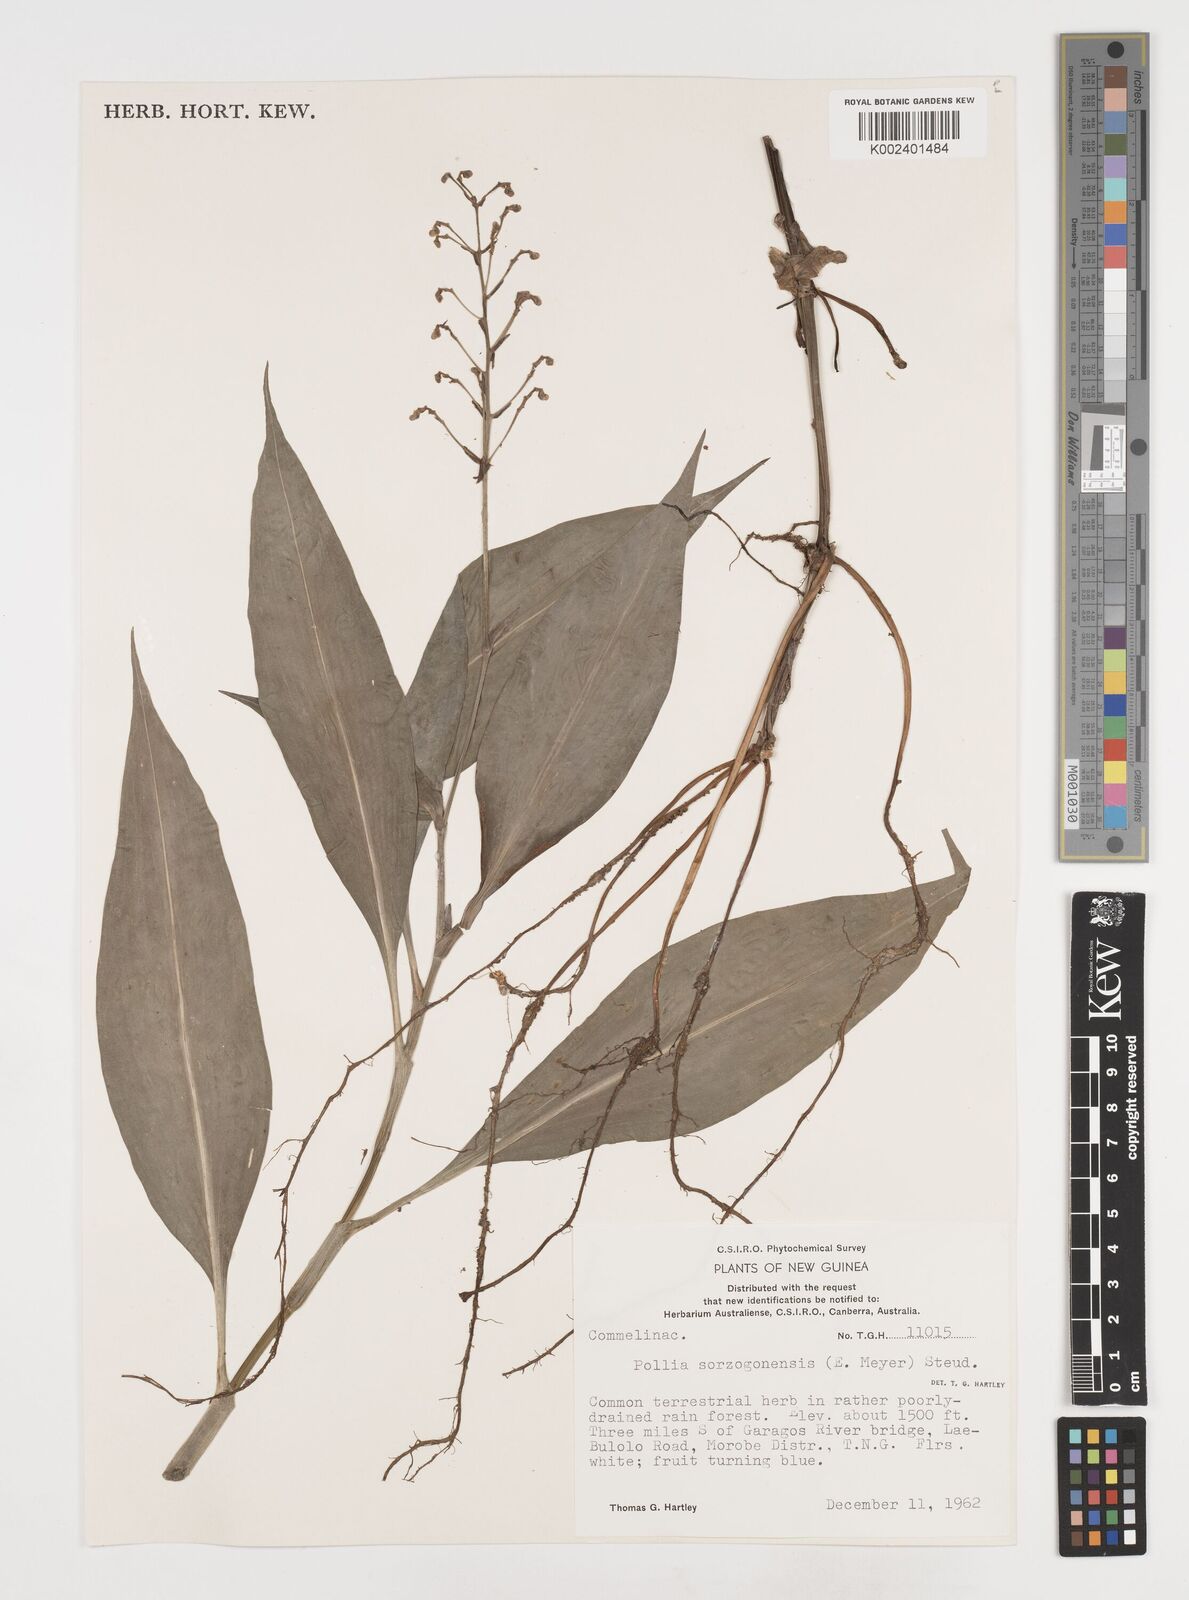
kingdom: Plantae
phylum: Tracheophyta
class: Liliopsida
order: Commelinales
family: Commelinaceae
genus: Pollia
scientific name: Pollia secundiflora
